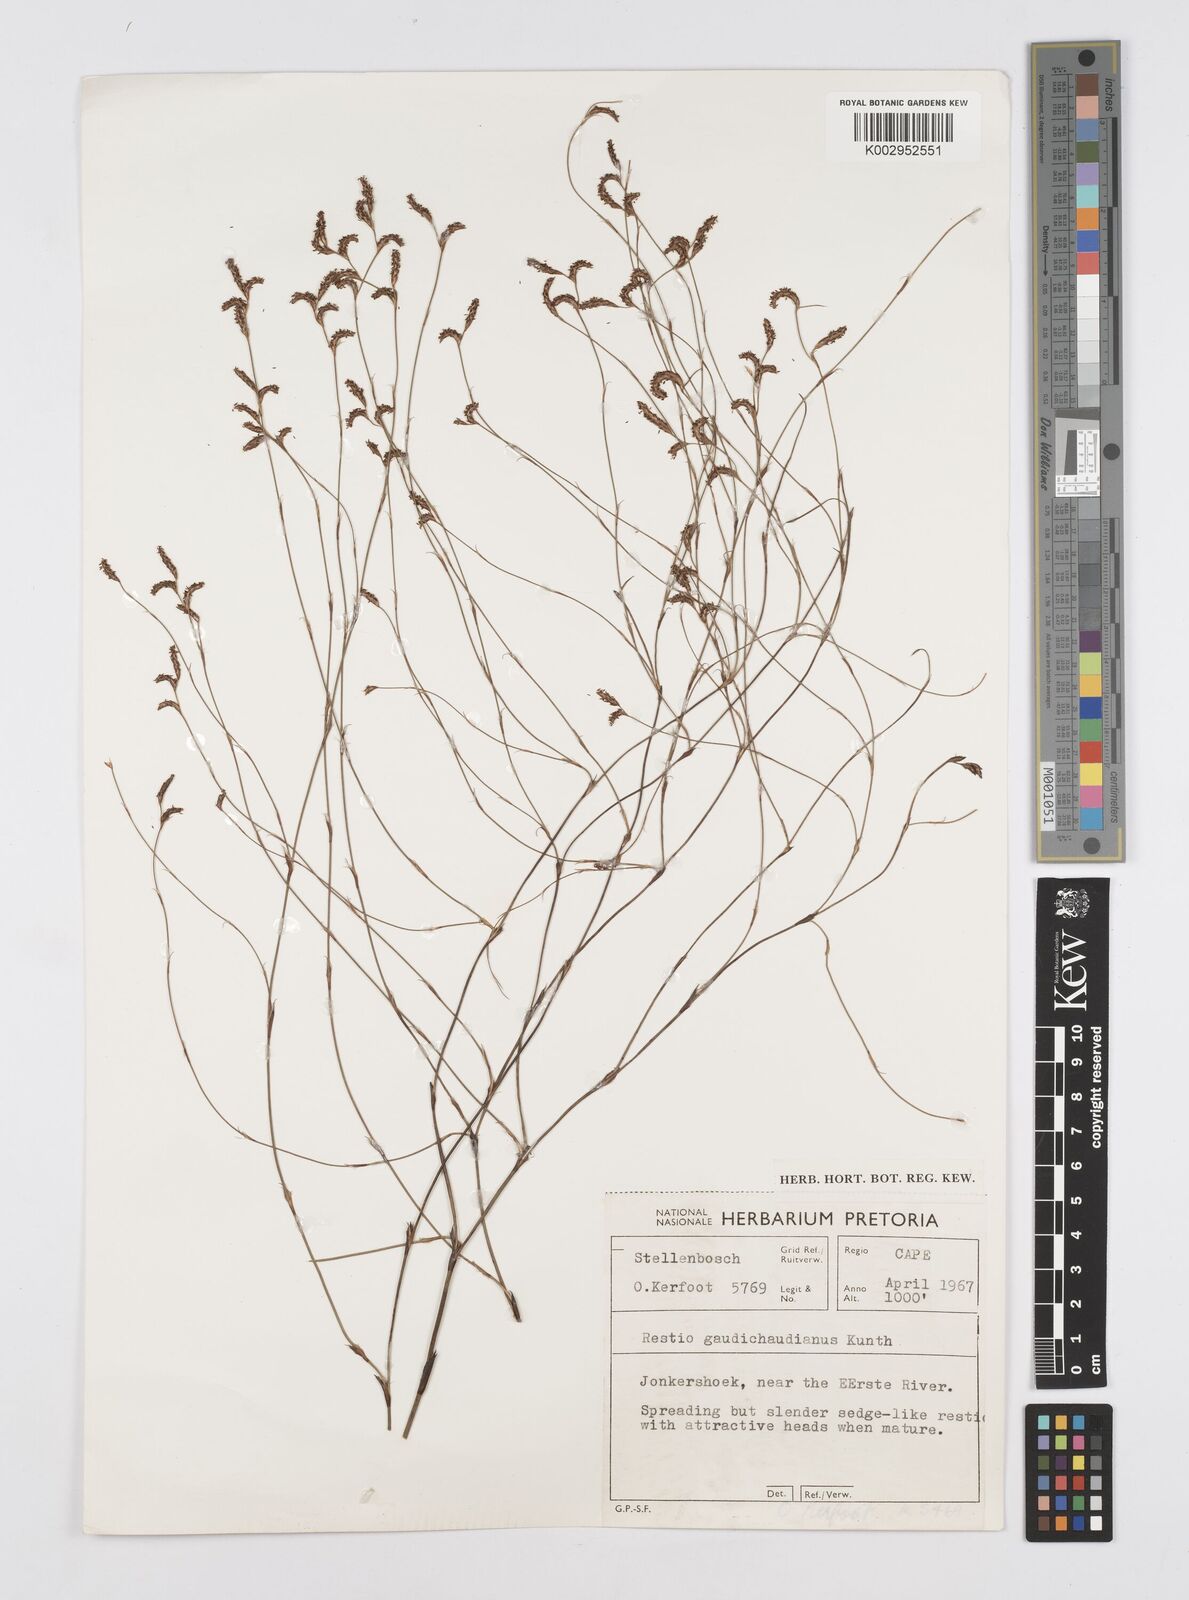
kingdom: Plantae
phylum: Tracheophyta
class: Liliopsida
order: Poales
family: Restionaceae
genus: Restio
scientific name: Restio gaudichaudianus
